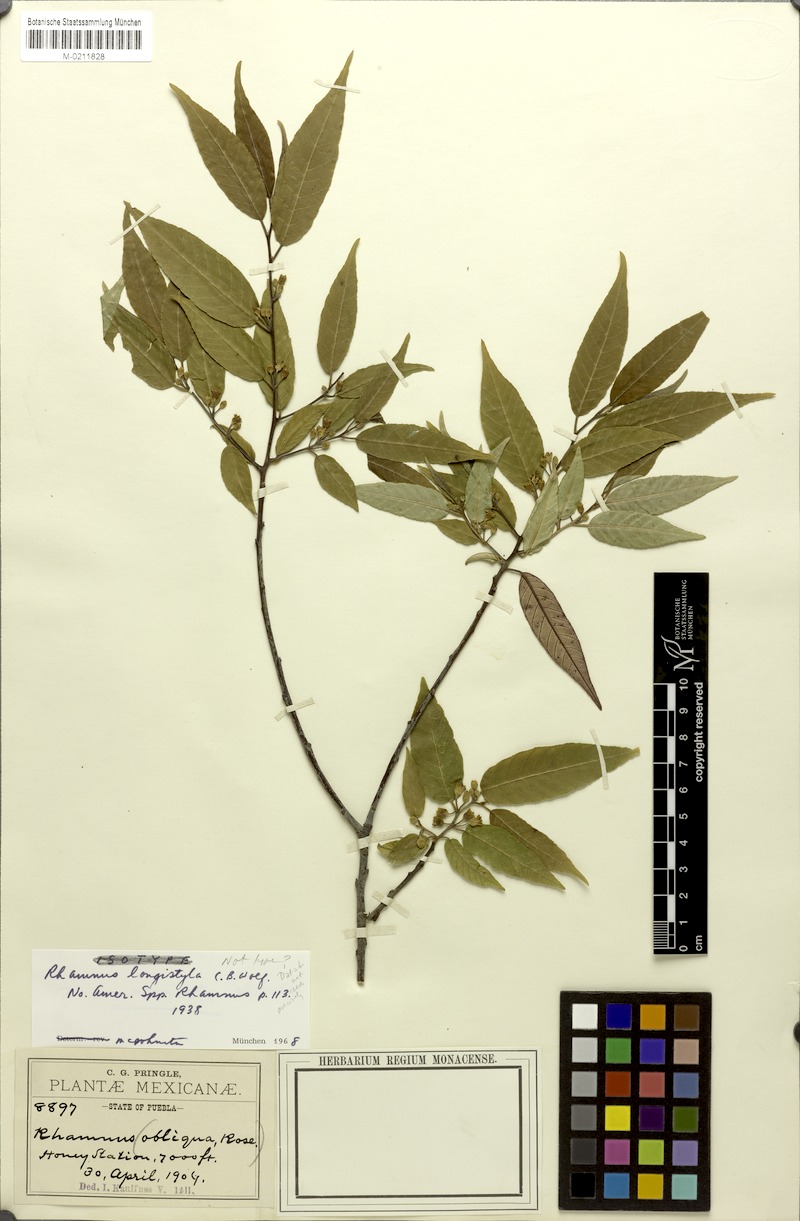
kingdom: Plantae
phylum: Tracheophyta
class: Magnoliopsida
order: Rosales
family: Rhamnaceae
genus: Frangula
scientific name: Frangula longistyla
